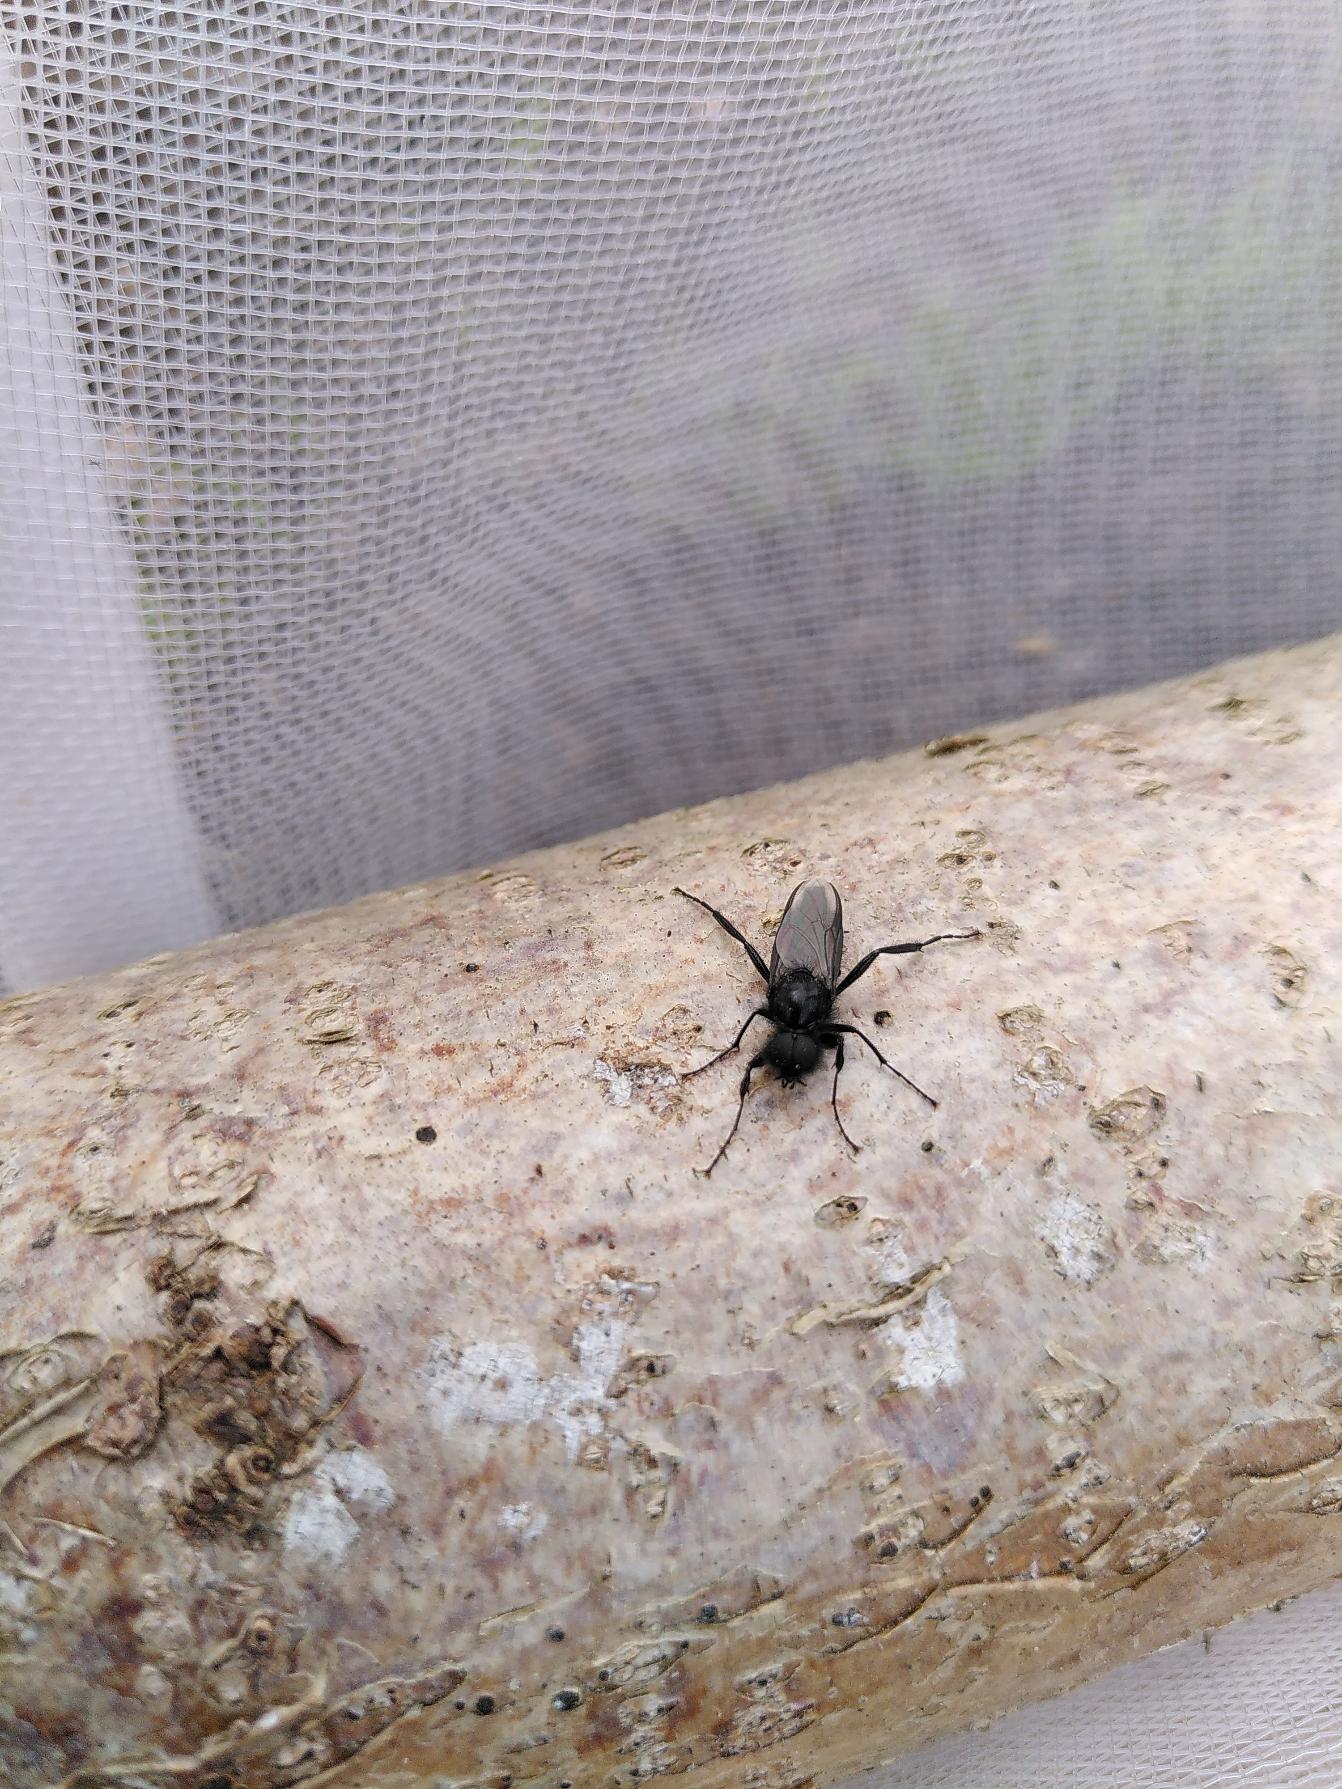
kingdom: Animalia
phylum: Arthropoda
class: Insecta
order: Diptera
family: Bibionidae
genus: Bibio
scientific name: Bibio marci
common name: Skovhårmyg
